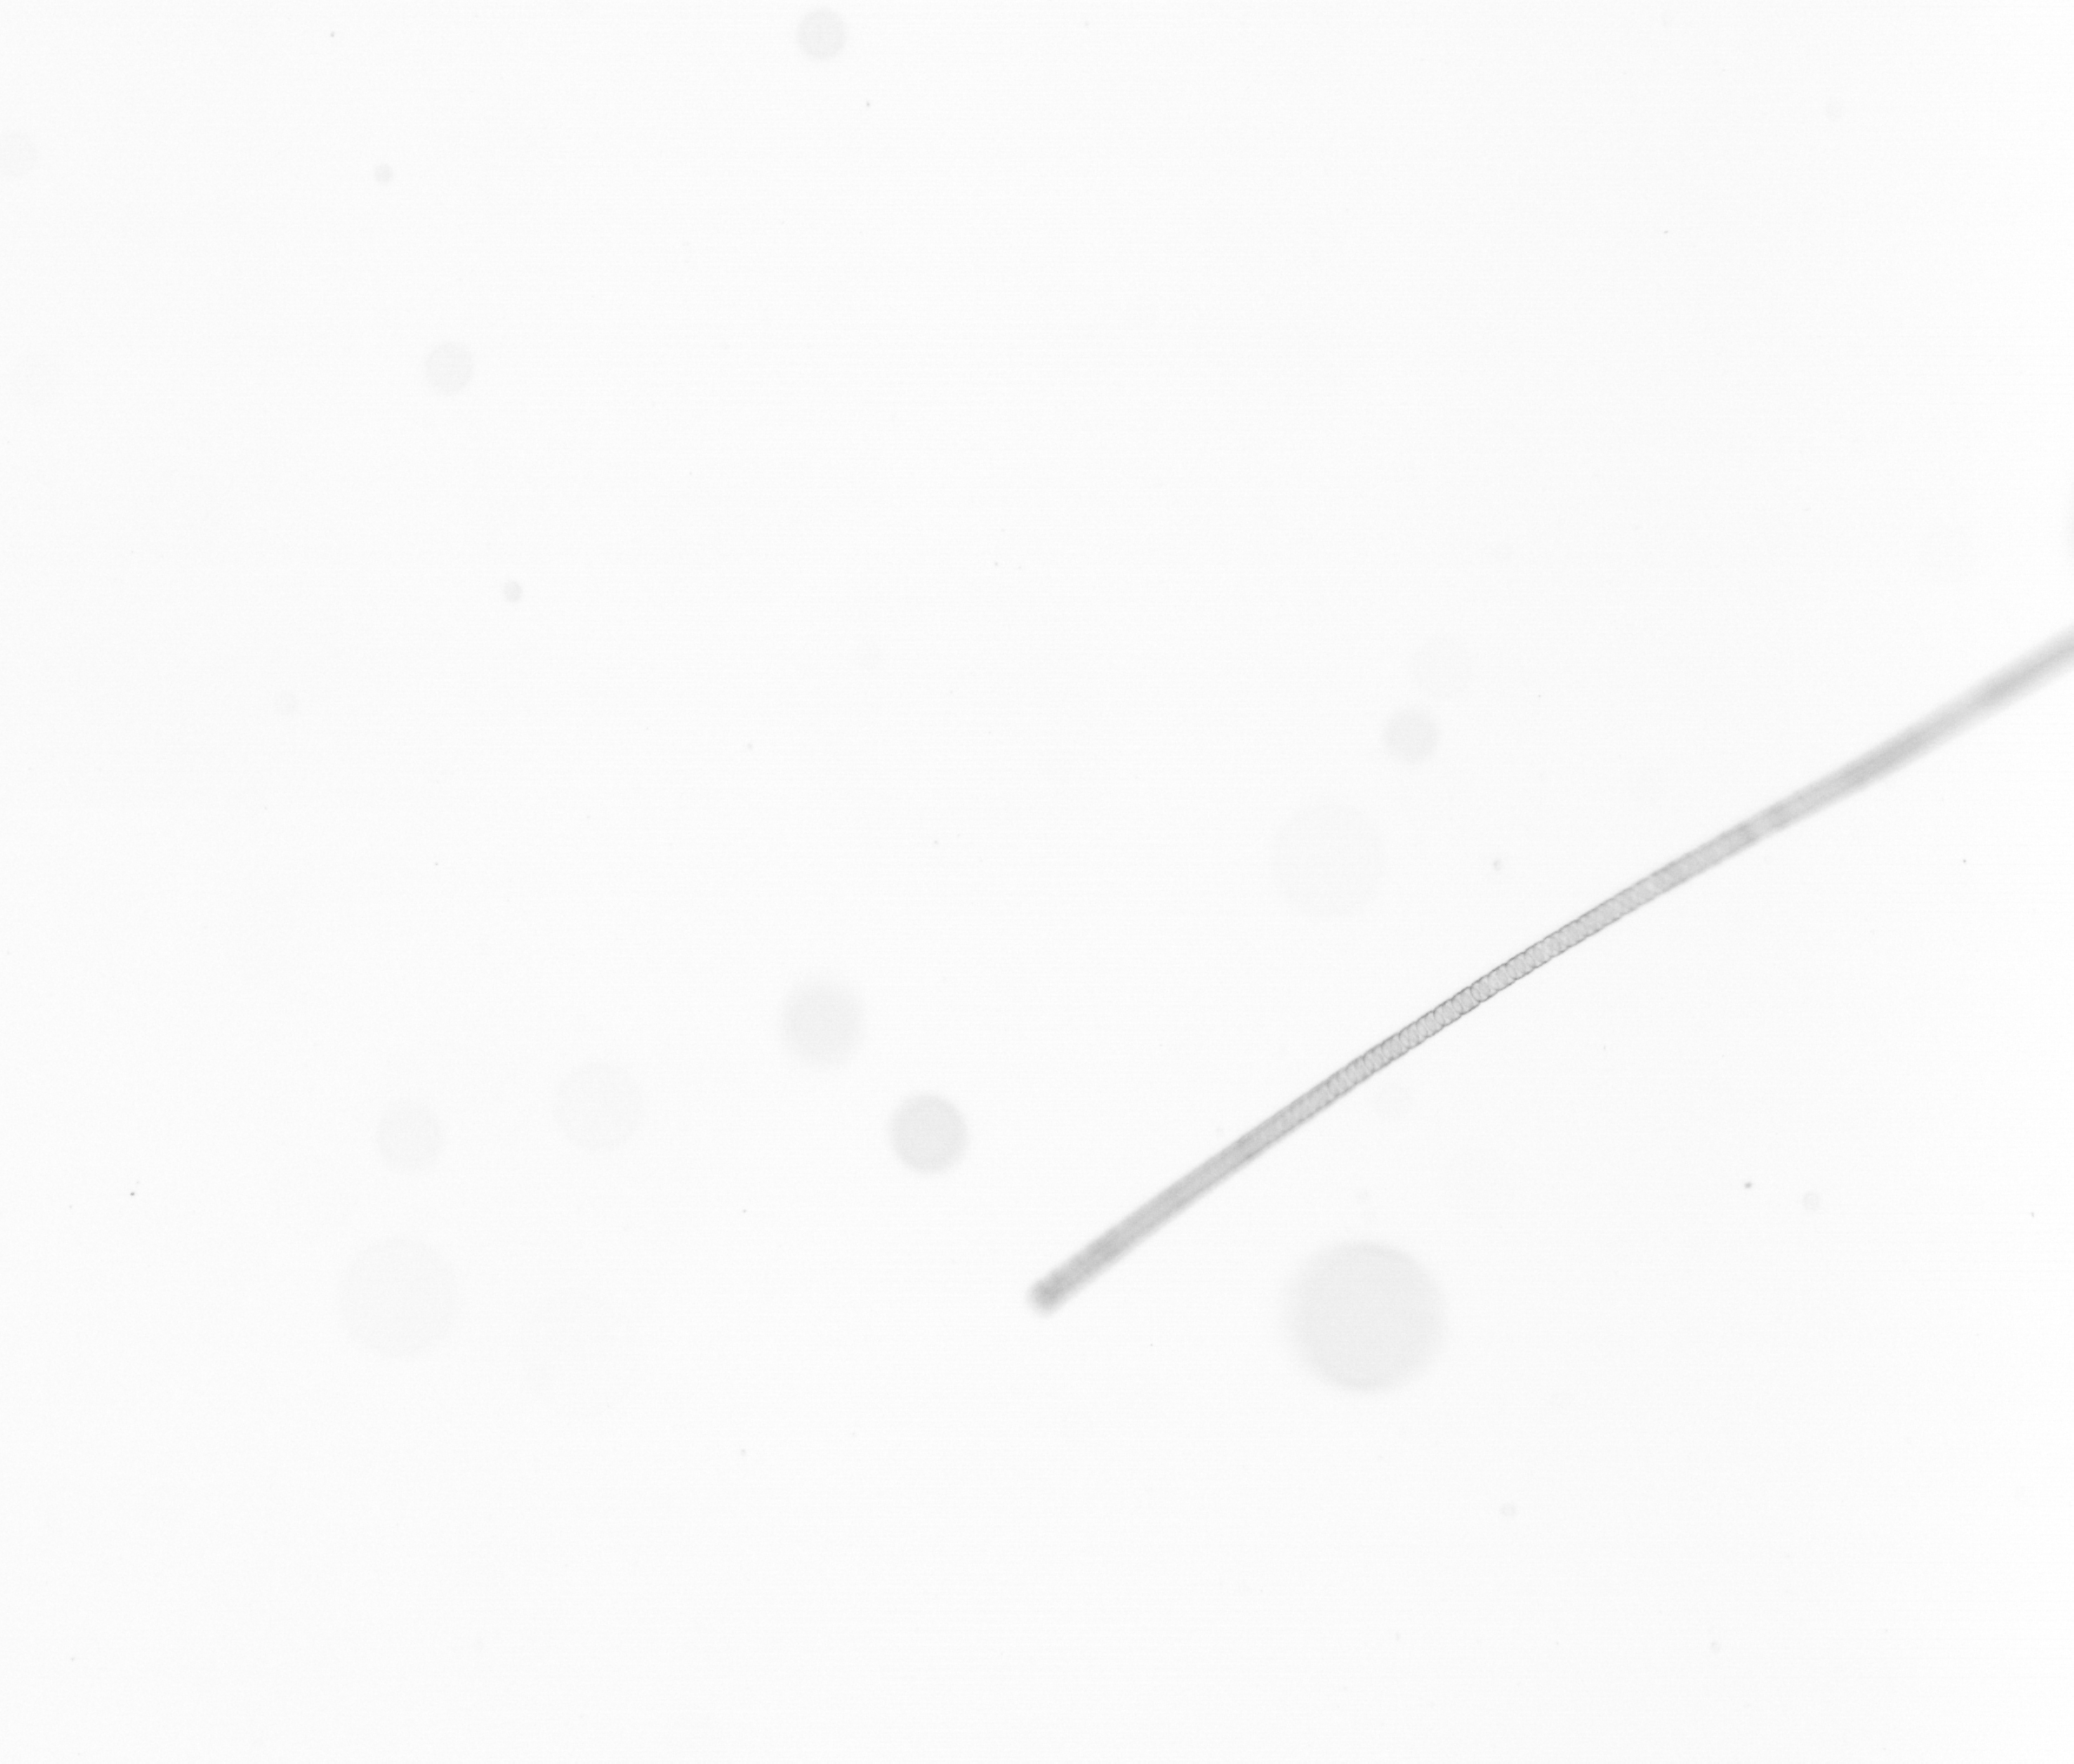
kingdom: Chromista
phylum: Ochrophyta
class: Bacillariophyceae
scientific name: Bacillariophyceae
